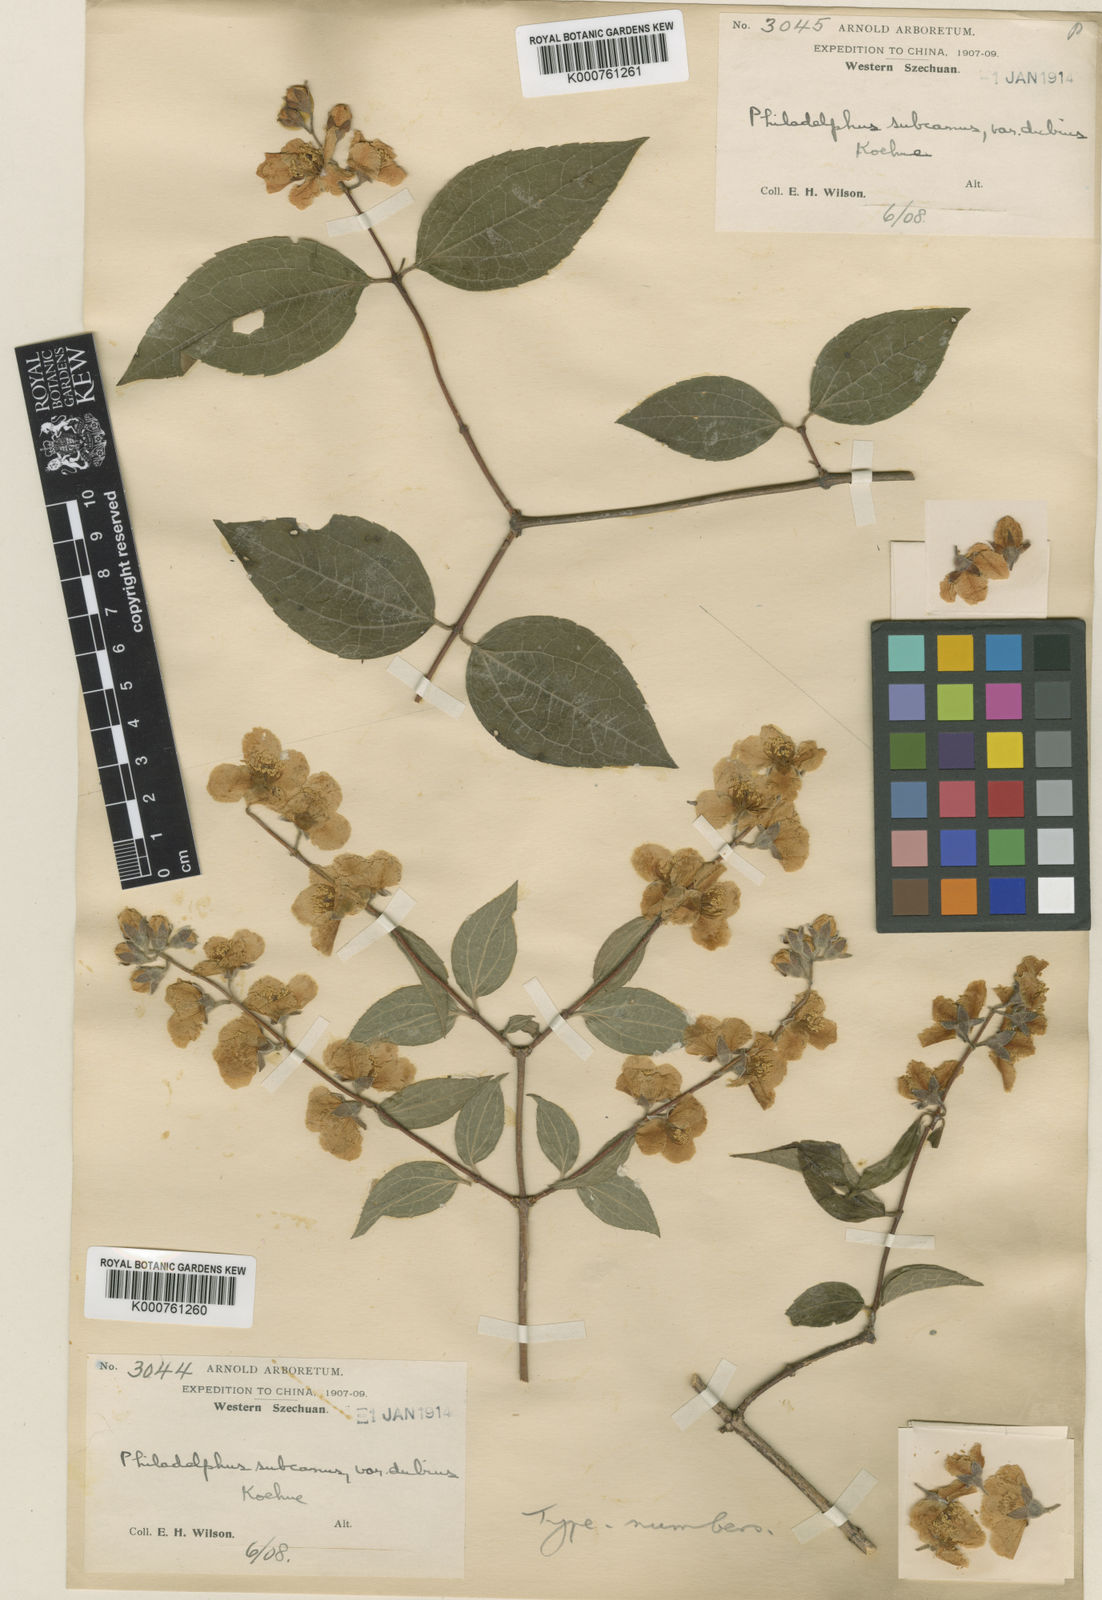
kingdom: Plantae
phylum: Tracheophyta
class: Magnoliopsida
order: Cornales
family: Hydrangeaceae
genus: Philadelphus
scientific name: Philadelphus subcanus
